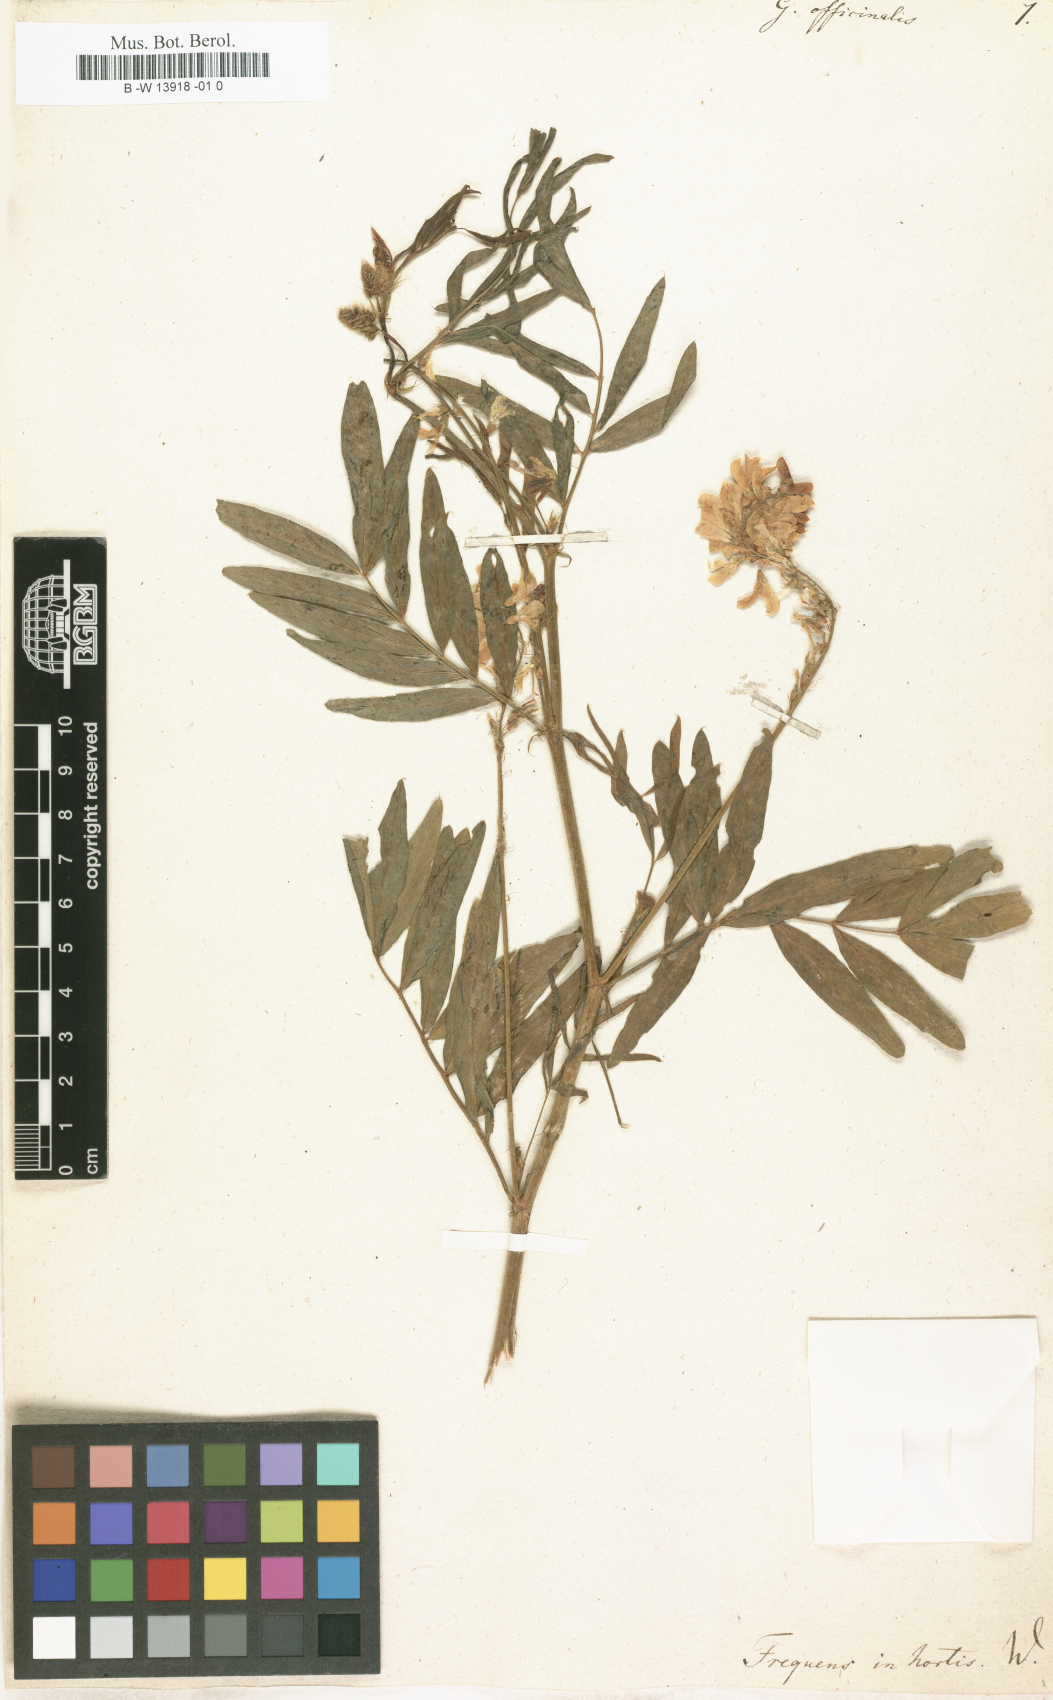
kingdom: Plantae
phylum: Tracheophyta
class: Magnoliopsida
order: Fabales
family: Fabaceae
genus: Galega
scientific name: Galega officinalis
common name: Goat's-rue
